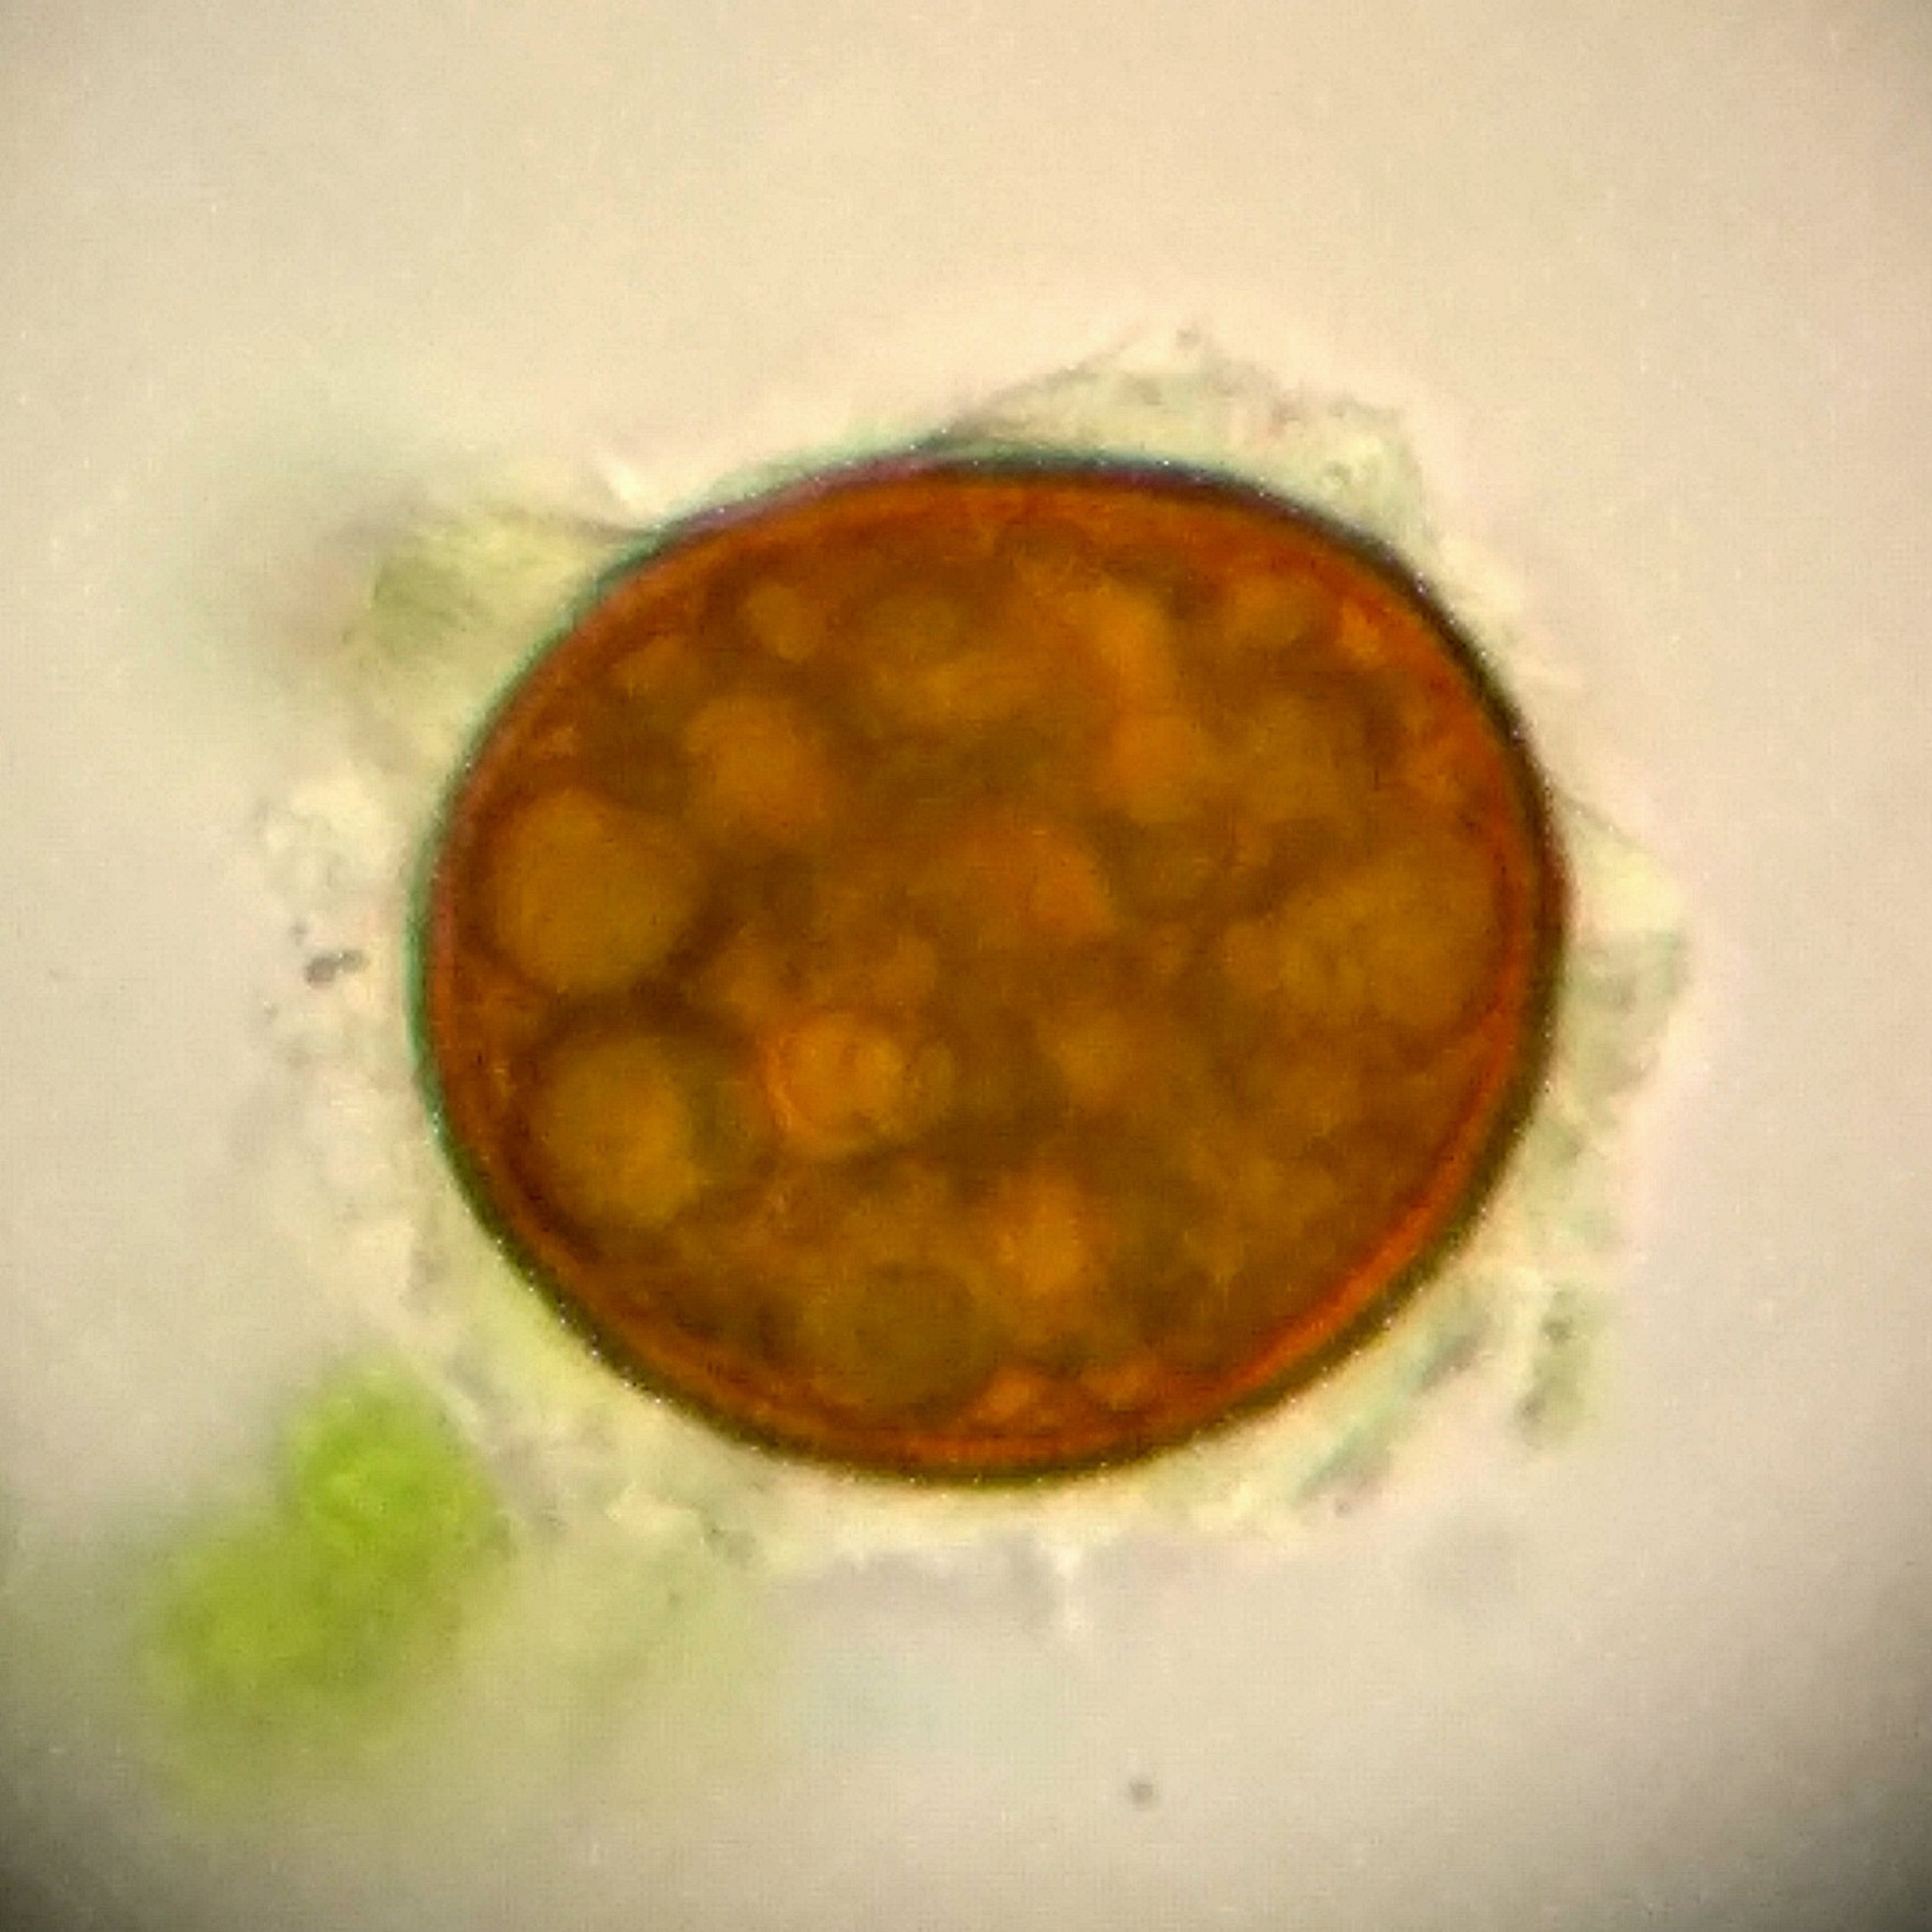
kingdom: Plantae
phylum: Bryophyta
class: Bryopsida
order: Pottiales
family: Ephemeraceae
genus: Ephemerum
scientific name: Ephemerum serratum
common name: Glat døgnmos
